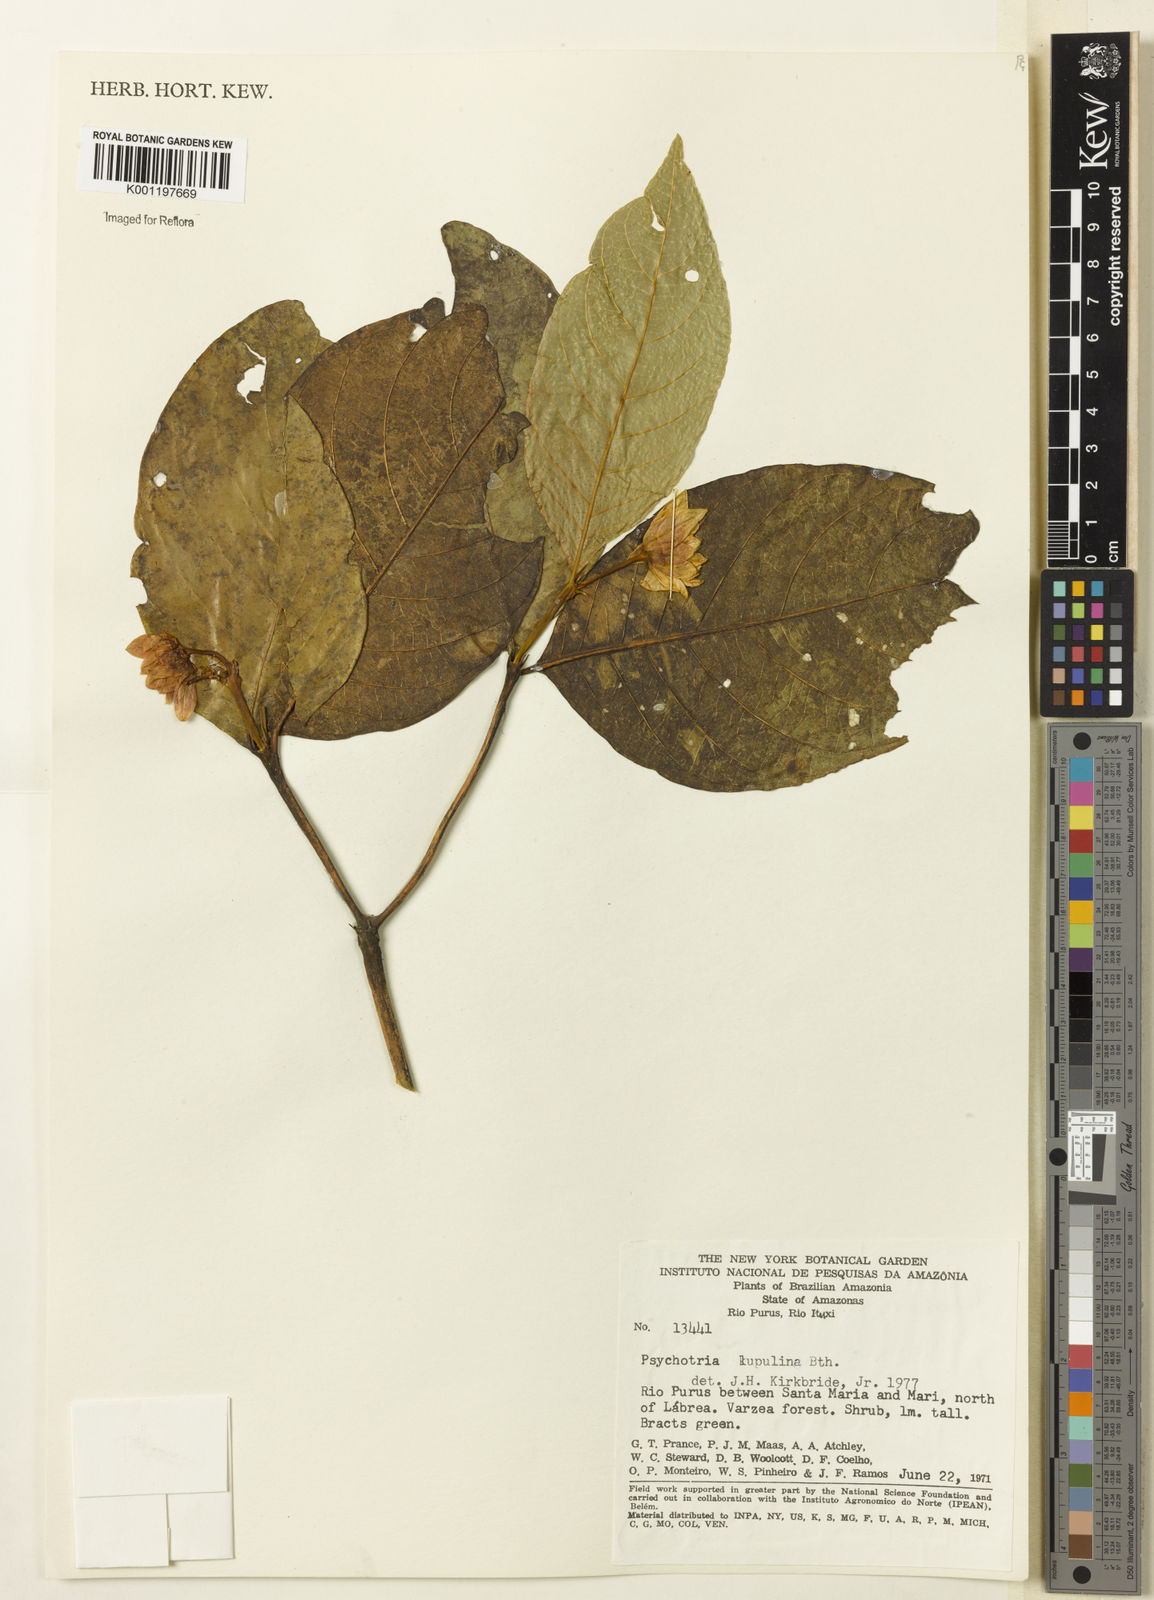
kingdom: Plantae
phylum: Tracheophyta
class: Magnoliopsida
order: Gentianales
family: Rubiaceae
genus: Palicourea
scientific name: Palicourea justiciifolia
